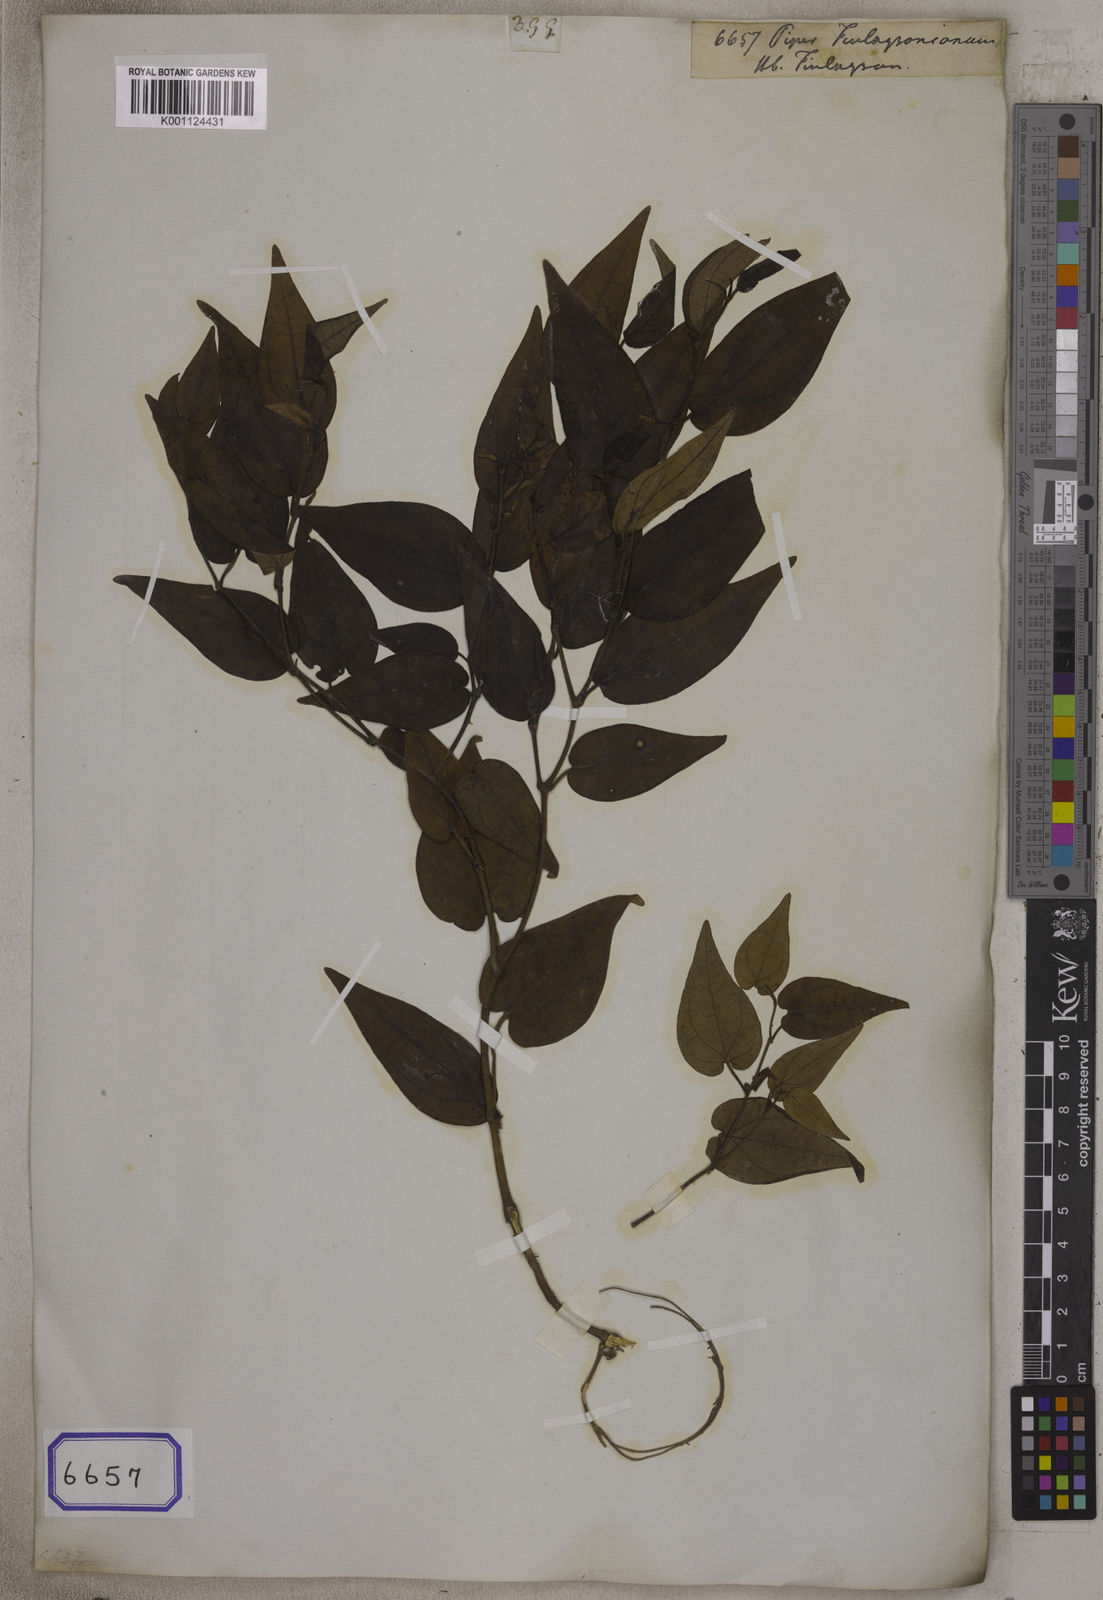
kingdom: Plantae
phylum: Tracheophyta
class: Magnoliopsida
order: Piperales
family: Piperaceae
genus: Piper
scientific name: Piper finlaysonianum
